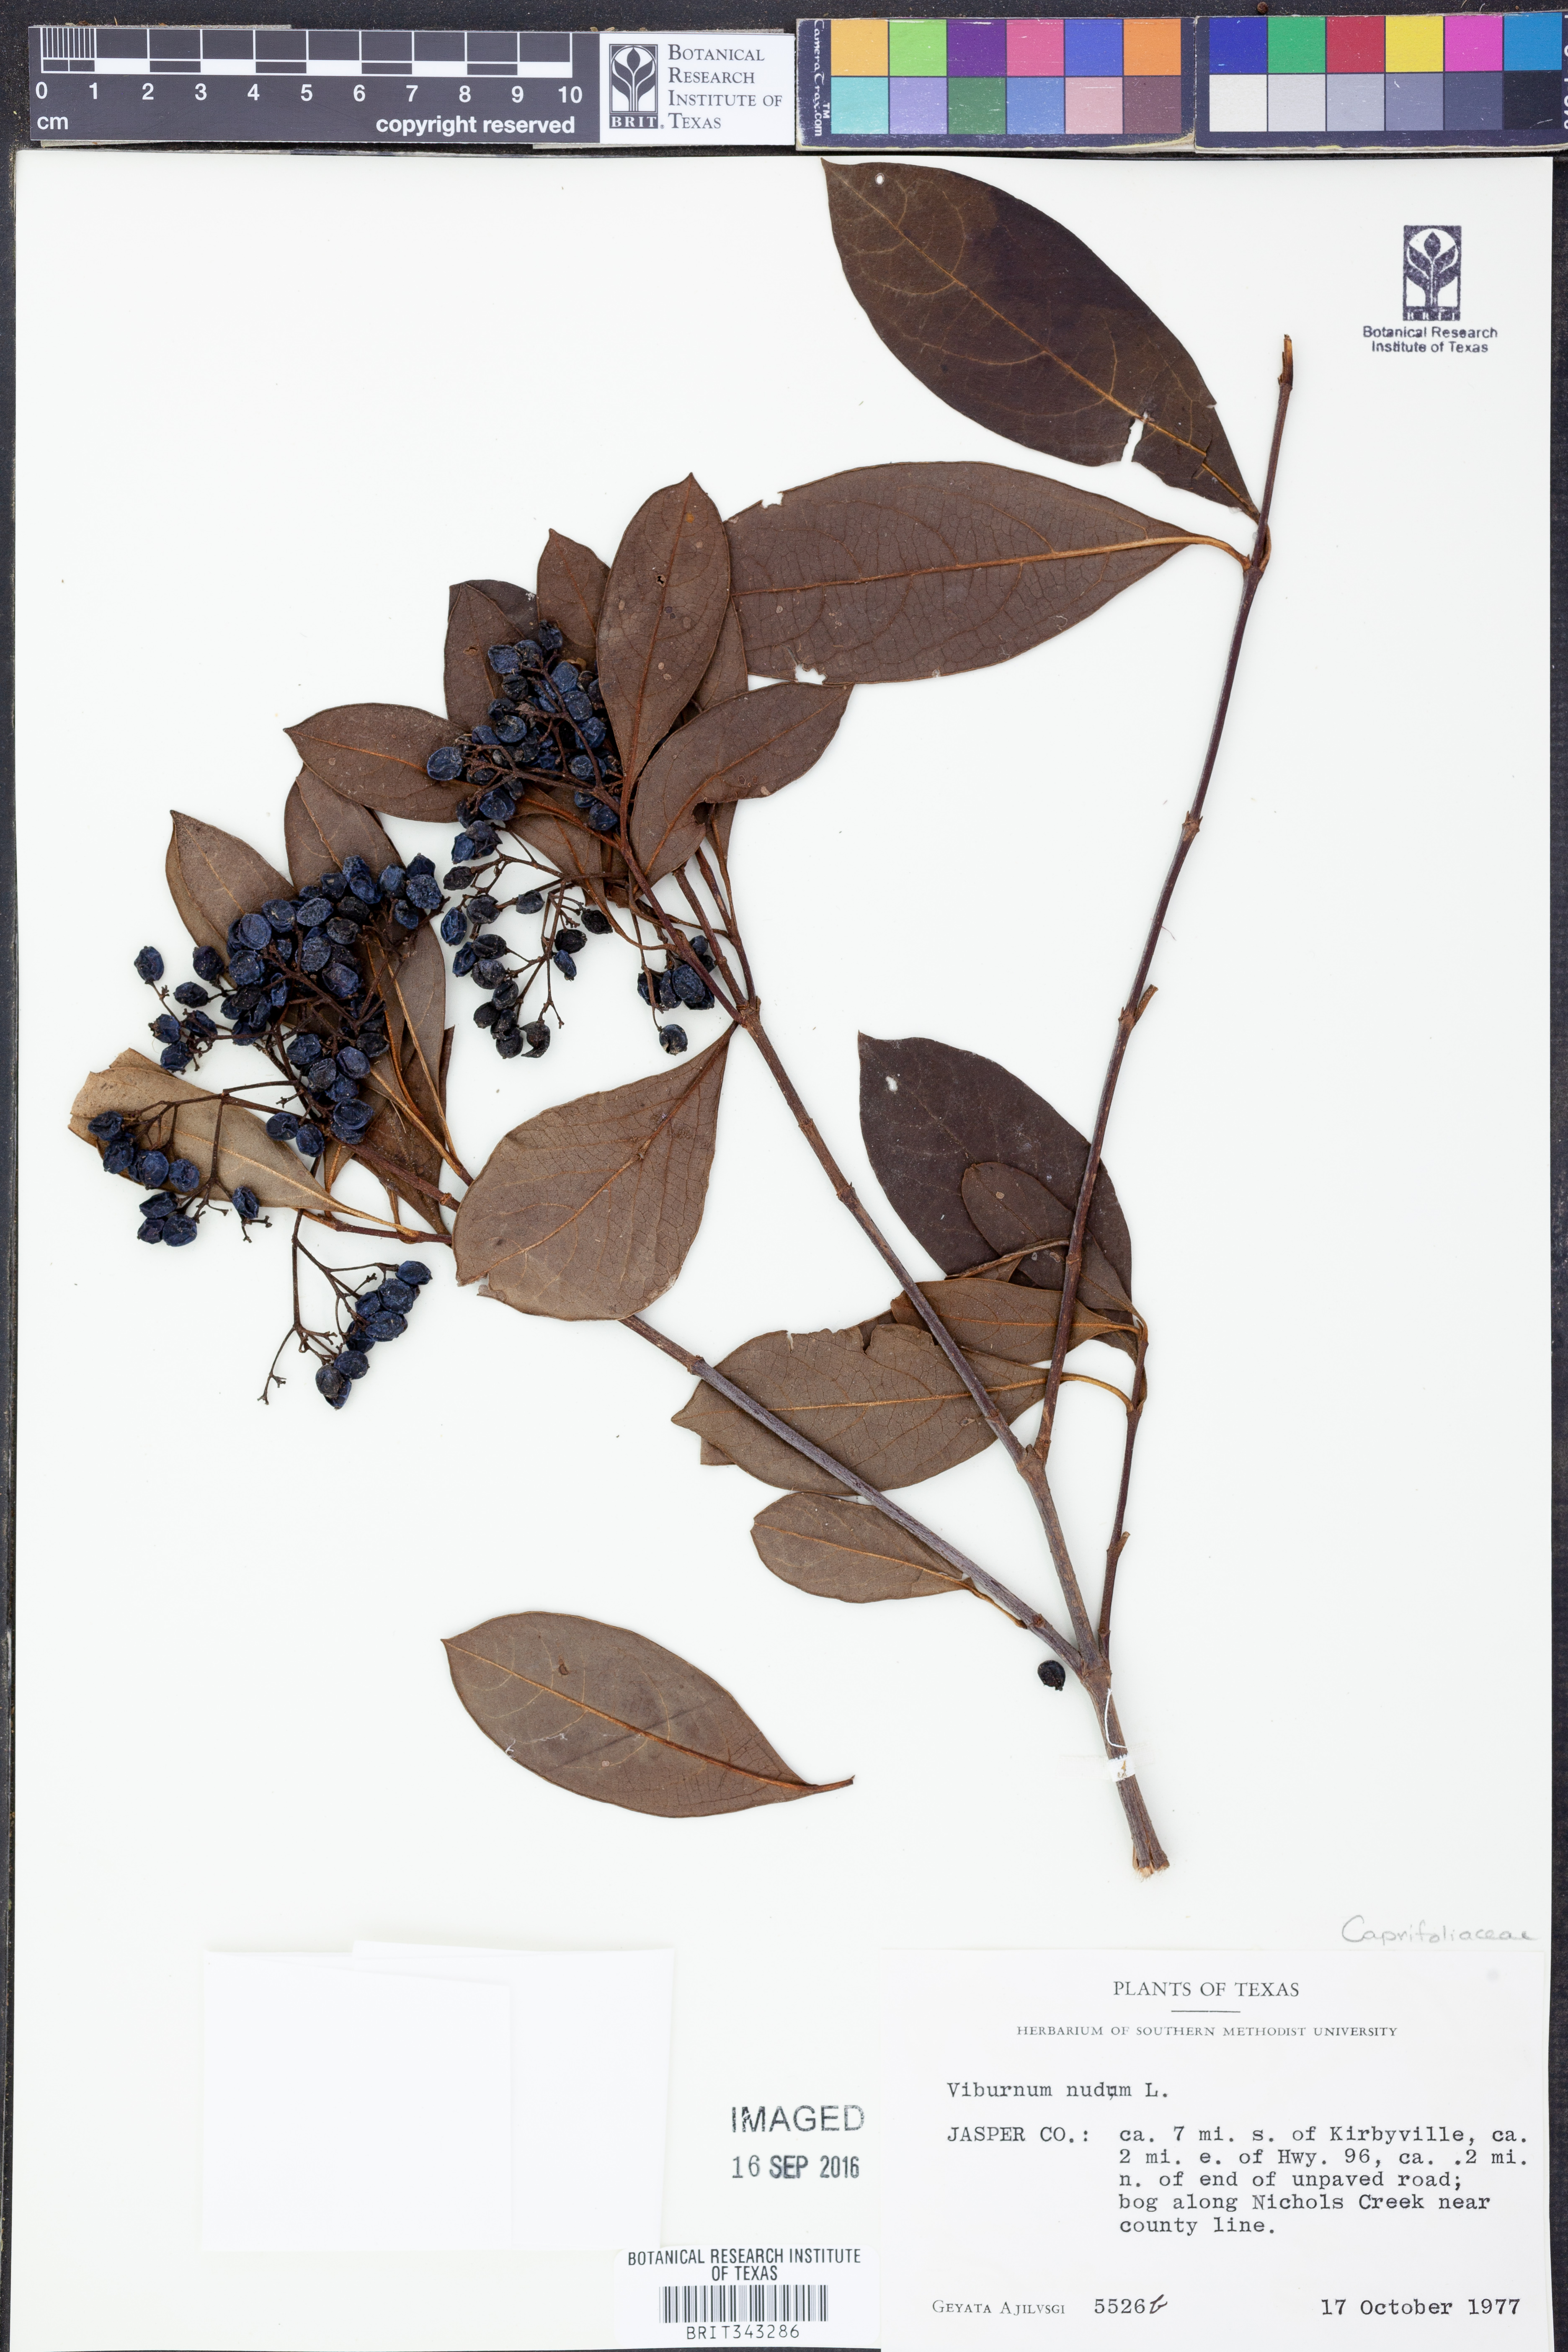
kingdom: Plantae
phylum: Tracheophyta
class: Magnoliopsida
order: Dipsacales
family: Viburnaceae
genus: Viburnum
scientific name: Viburnum nudum
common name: Possum haw
